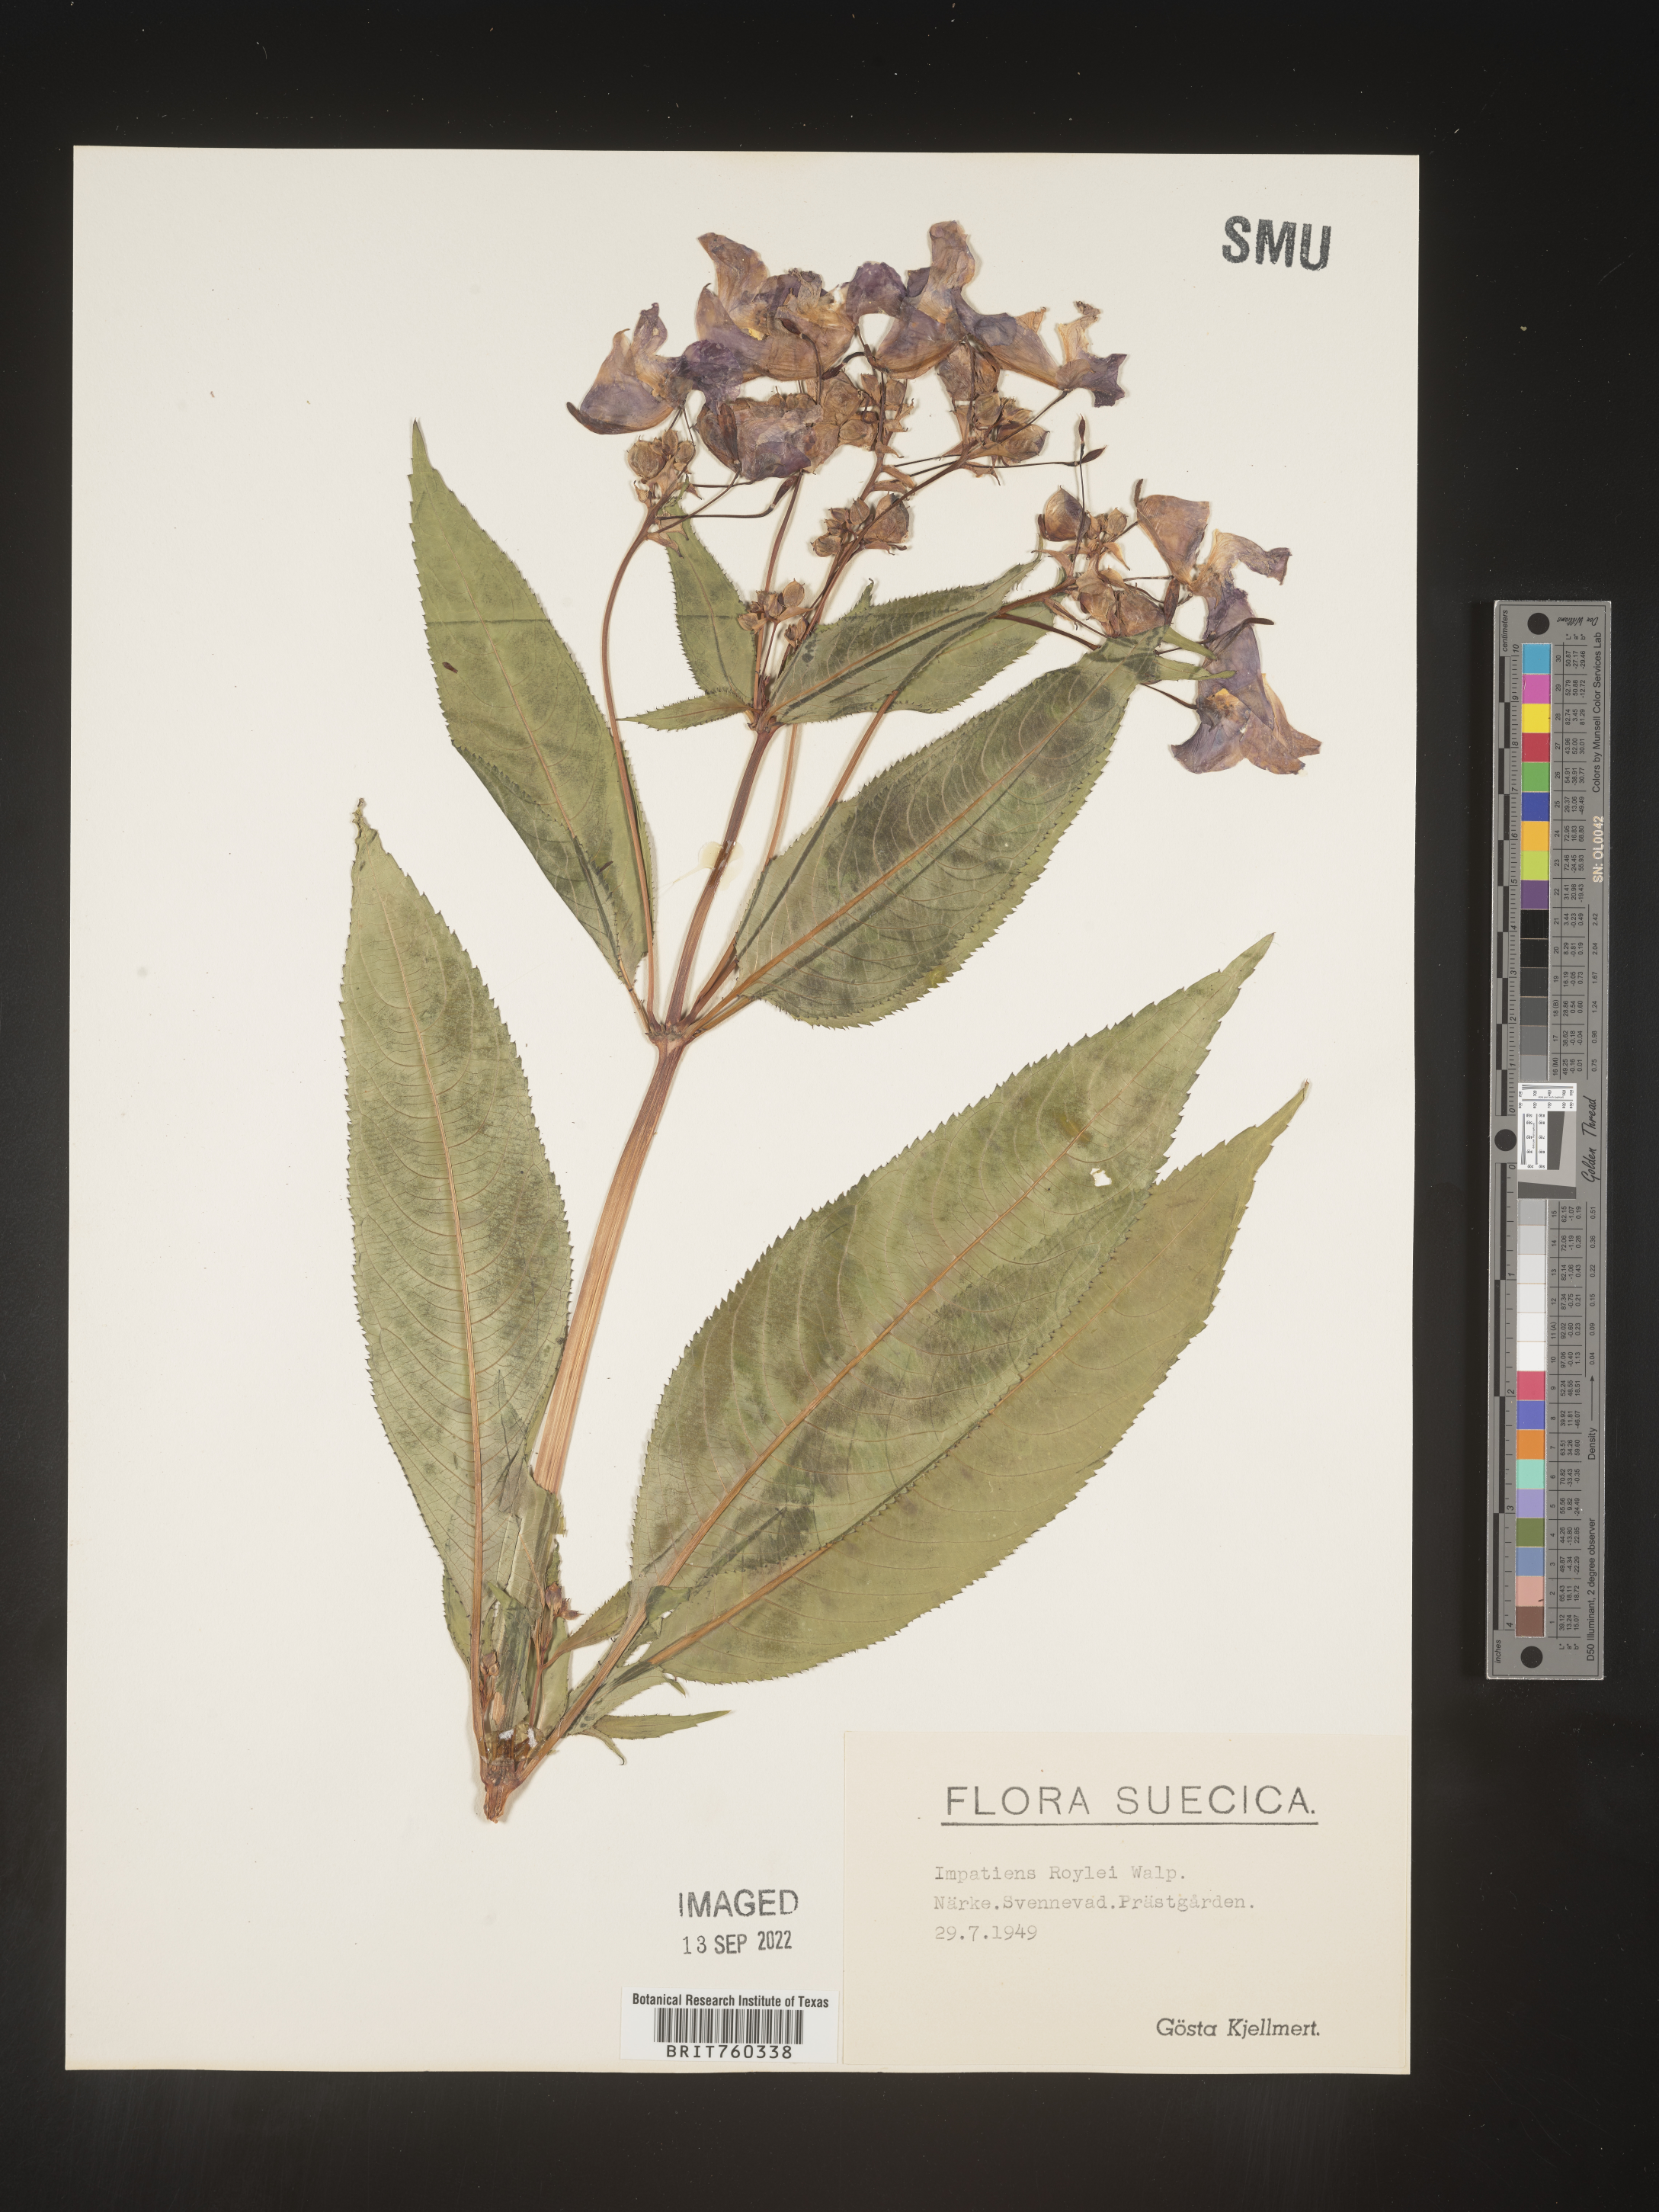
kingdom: Plantae
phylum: Tracheophyta
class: Magnoliopsida
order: Ericales
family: Balsaminaceae
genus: Impatiens
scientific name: Impatiens
